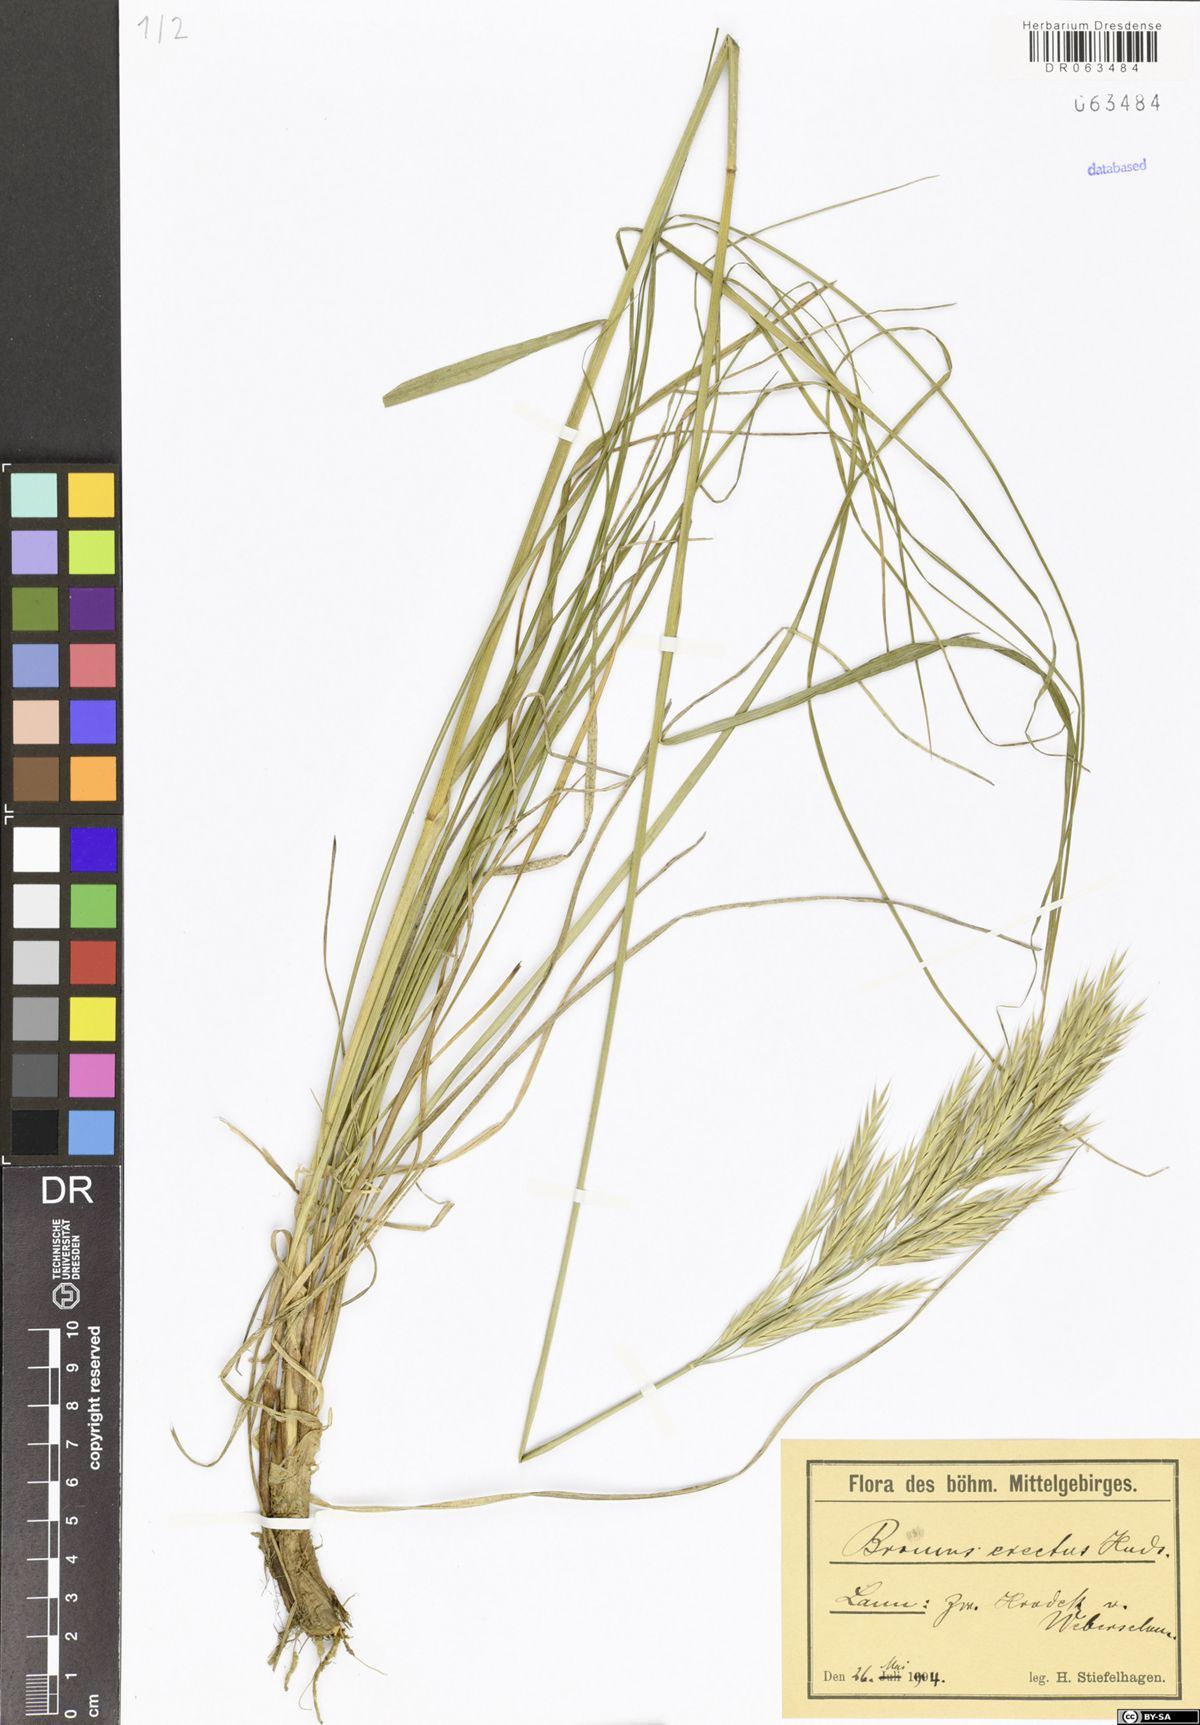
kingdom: Plantae
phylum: Tracheophyta
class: Liliopsida
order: Poales
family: Poaceae
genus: Bromus
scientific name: Bromus erectus
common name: Erect brome
